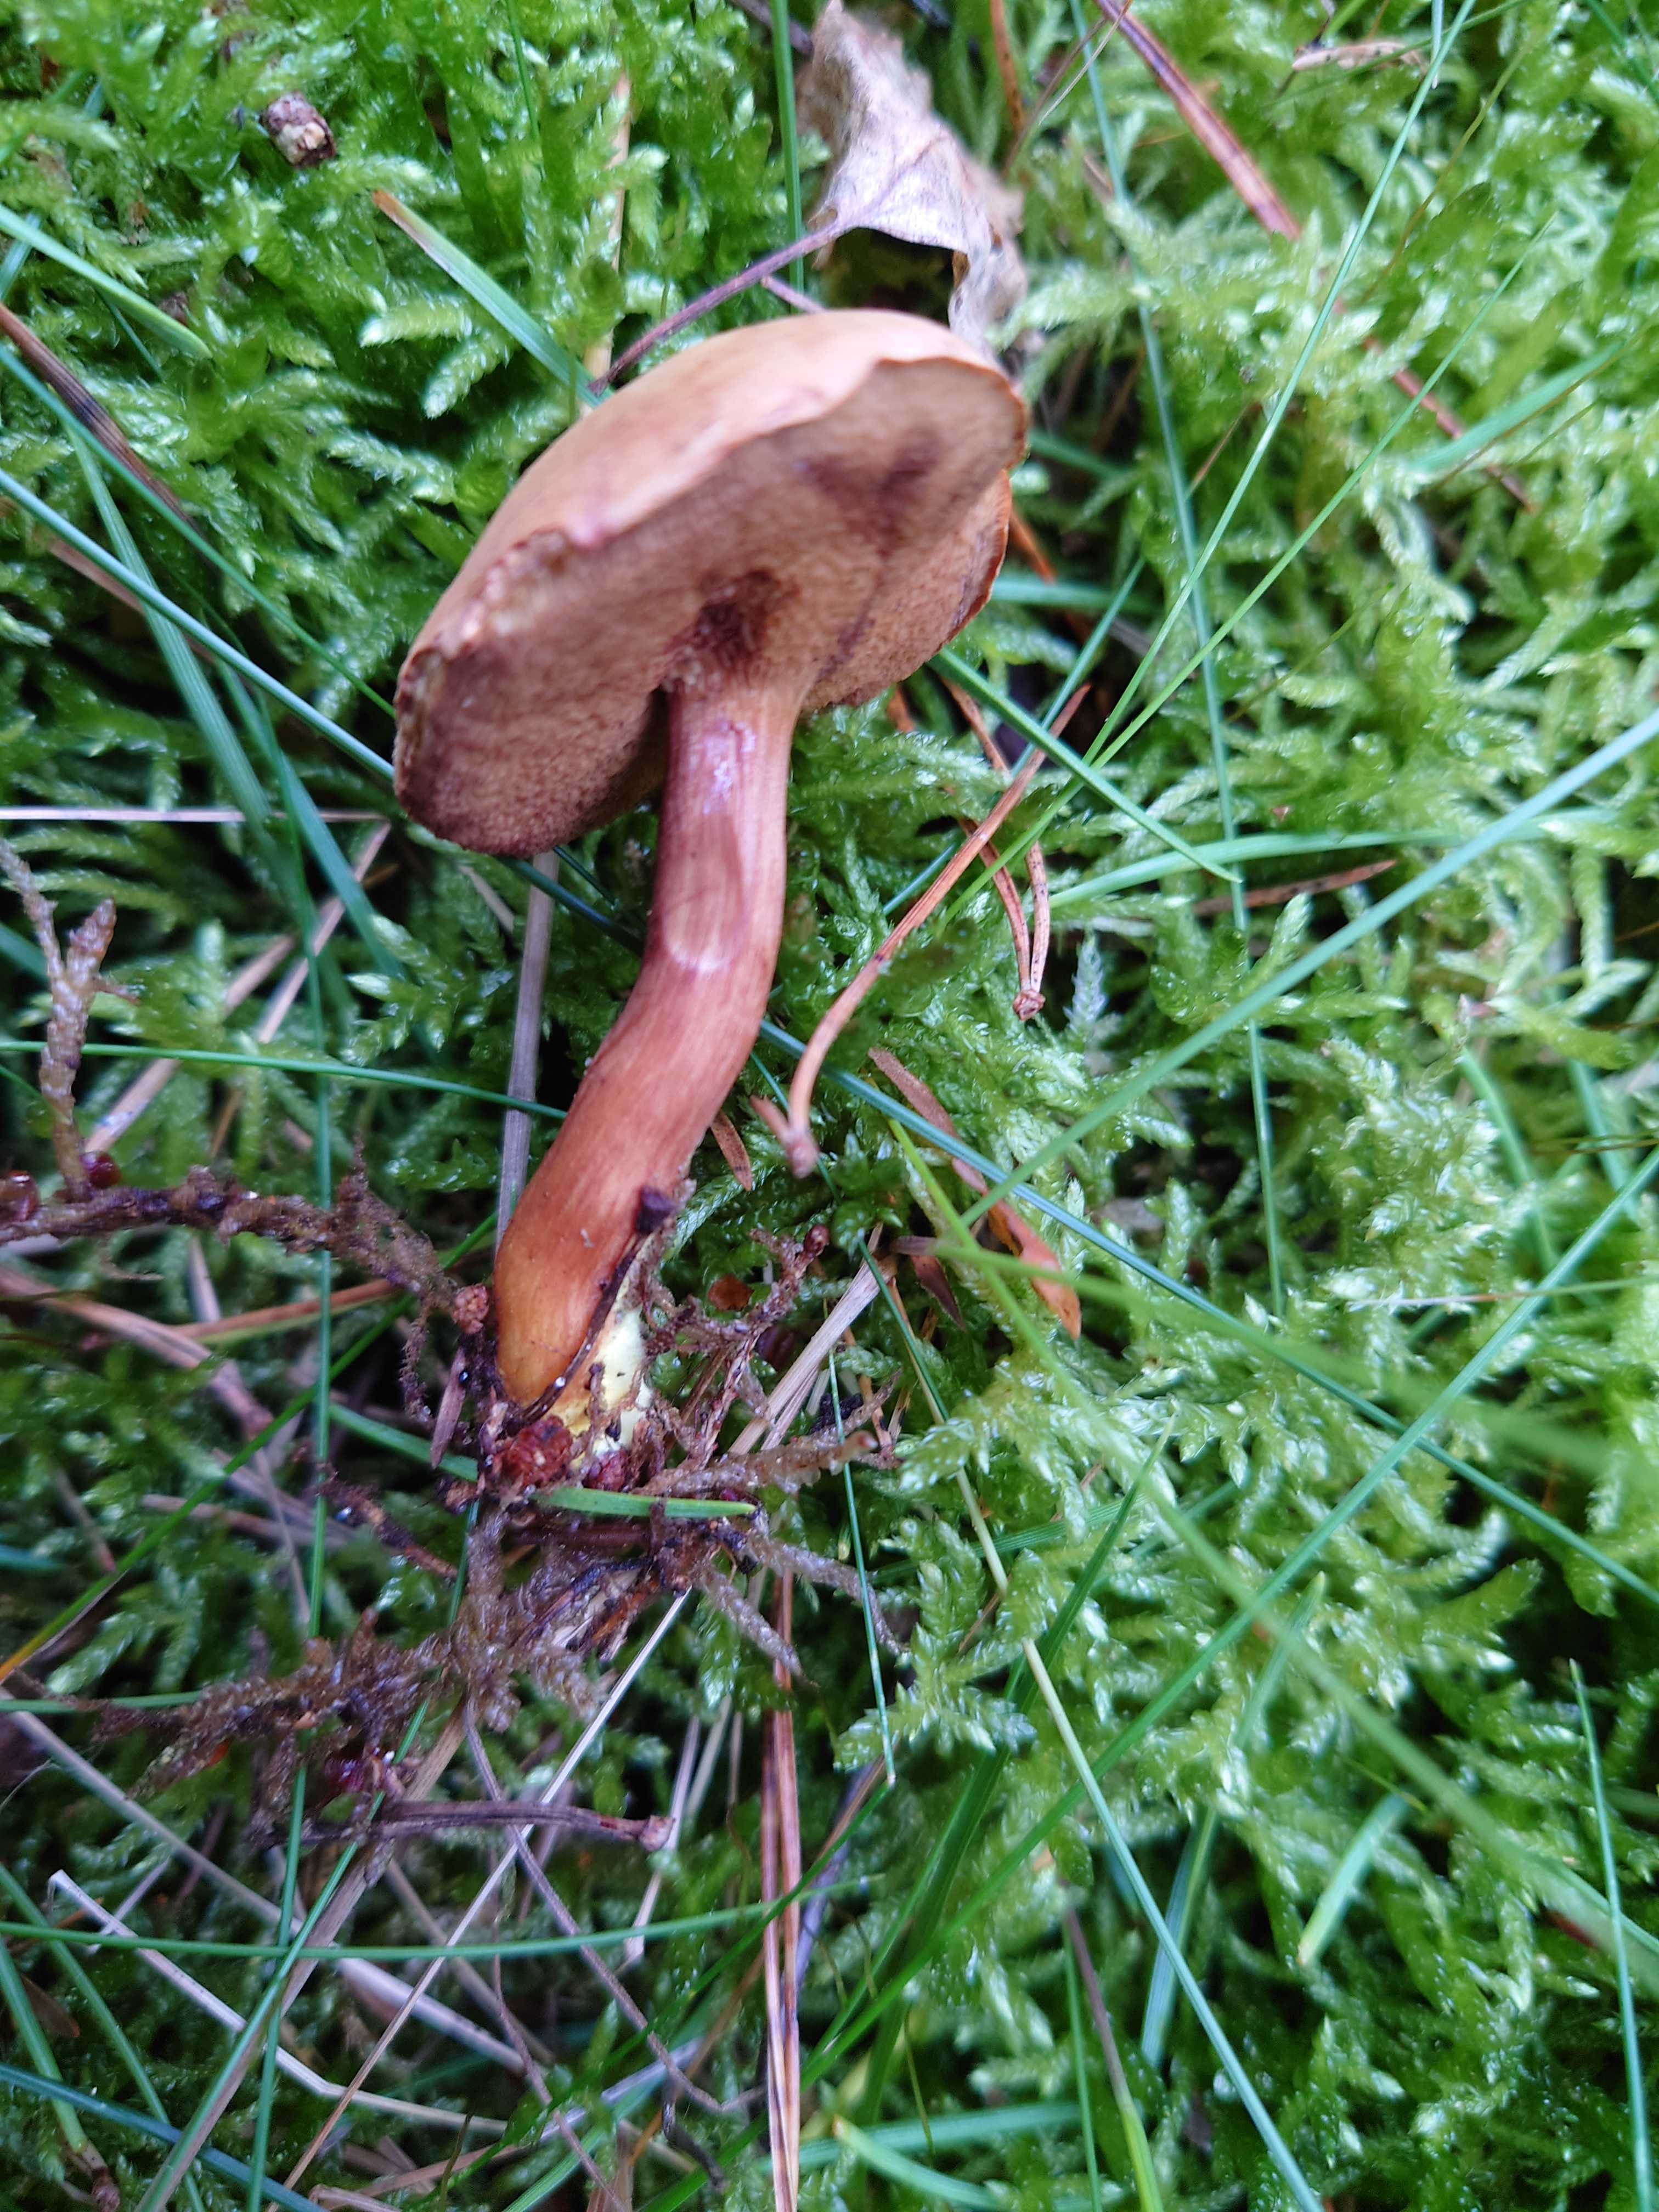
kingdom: Fungi
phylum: Basidiomycota
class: Agaricomycetes
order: Boletales
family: Boletaceae
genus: Chalciporus
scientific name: Chalciporus piperatus
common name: peberrørhat
